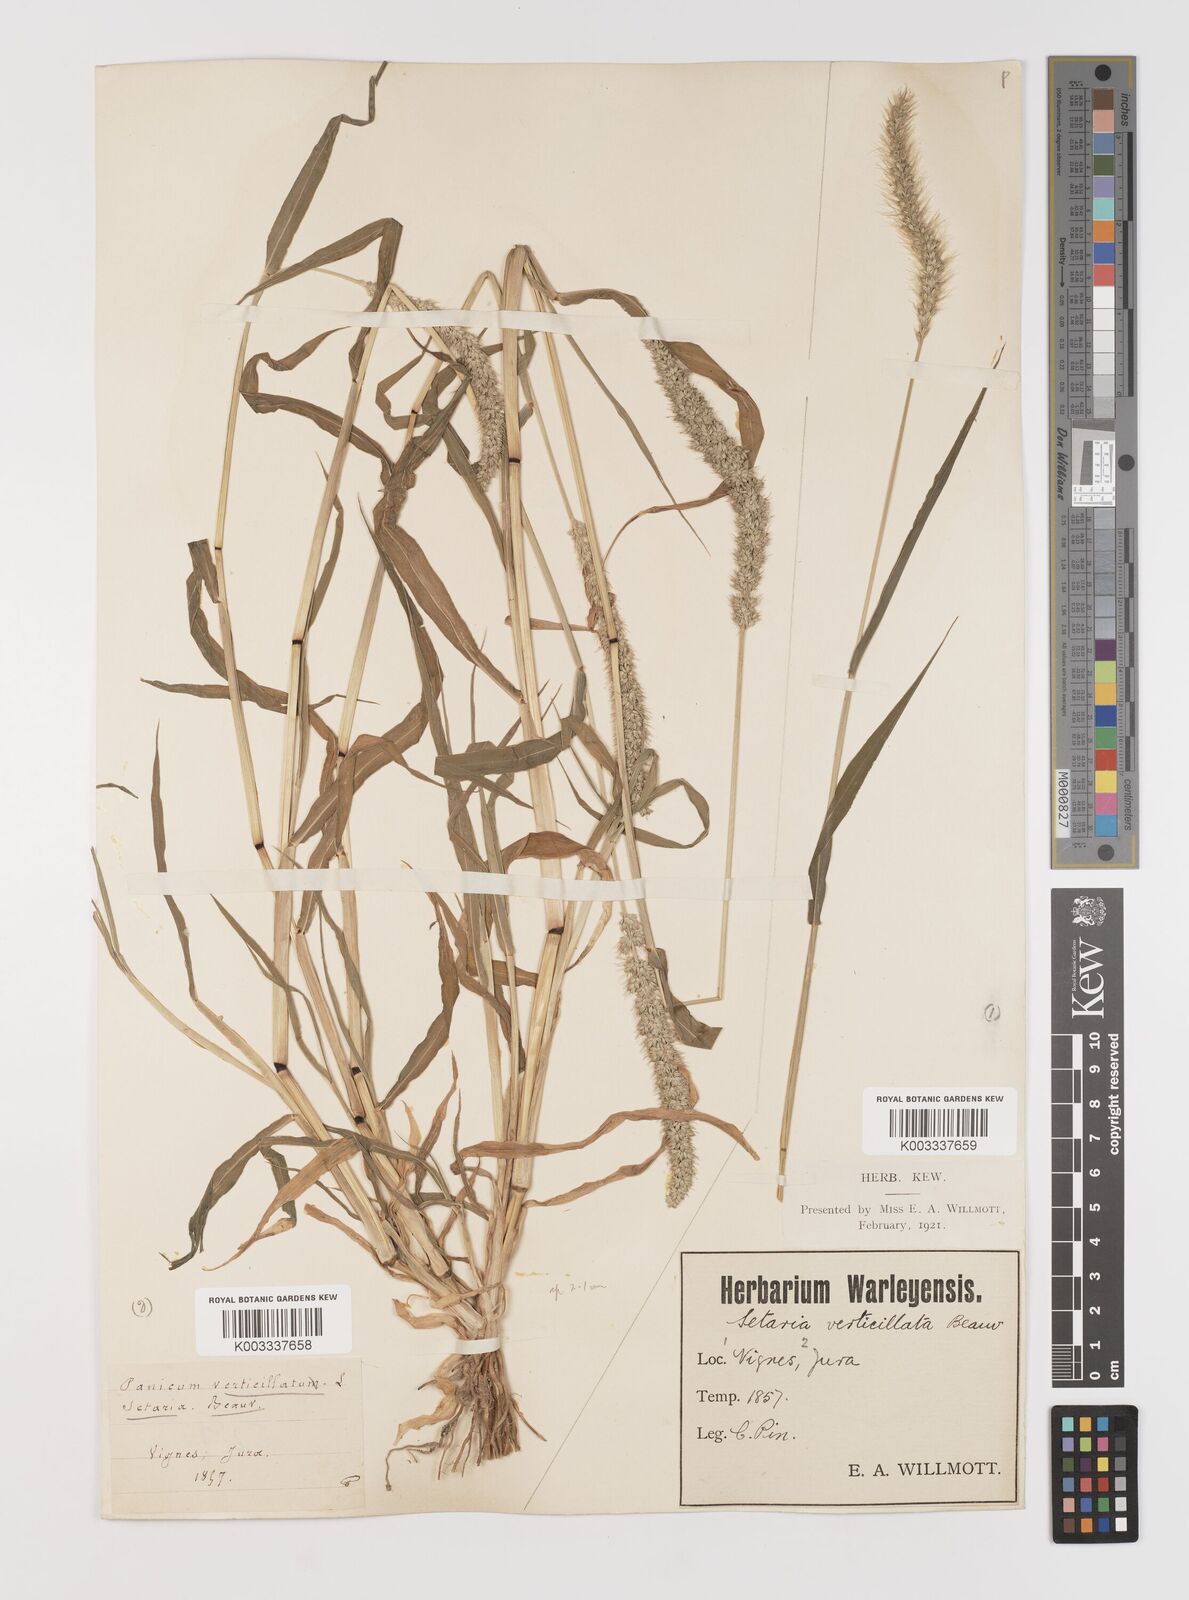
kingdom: Plantae
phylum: Tracheophyta
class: Liliopsida
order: Poales
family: Poaceae
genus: Setaria
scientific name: Setaria verticillata
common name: Hooked bristlegrass
